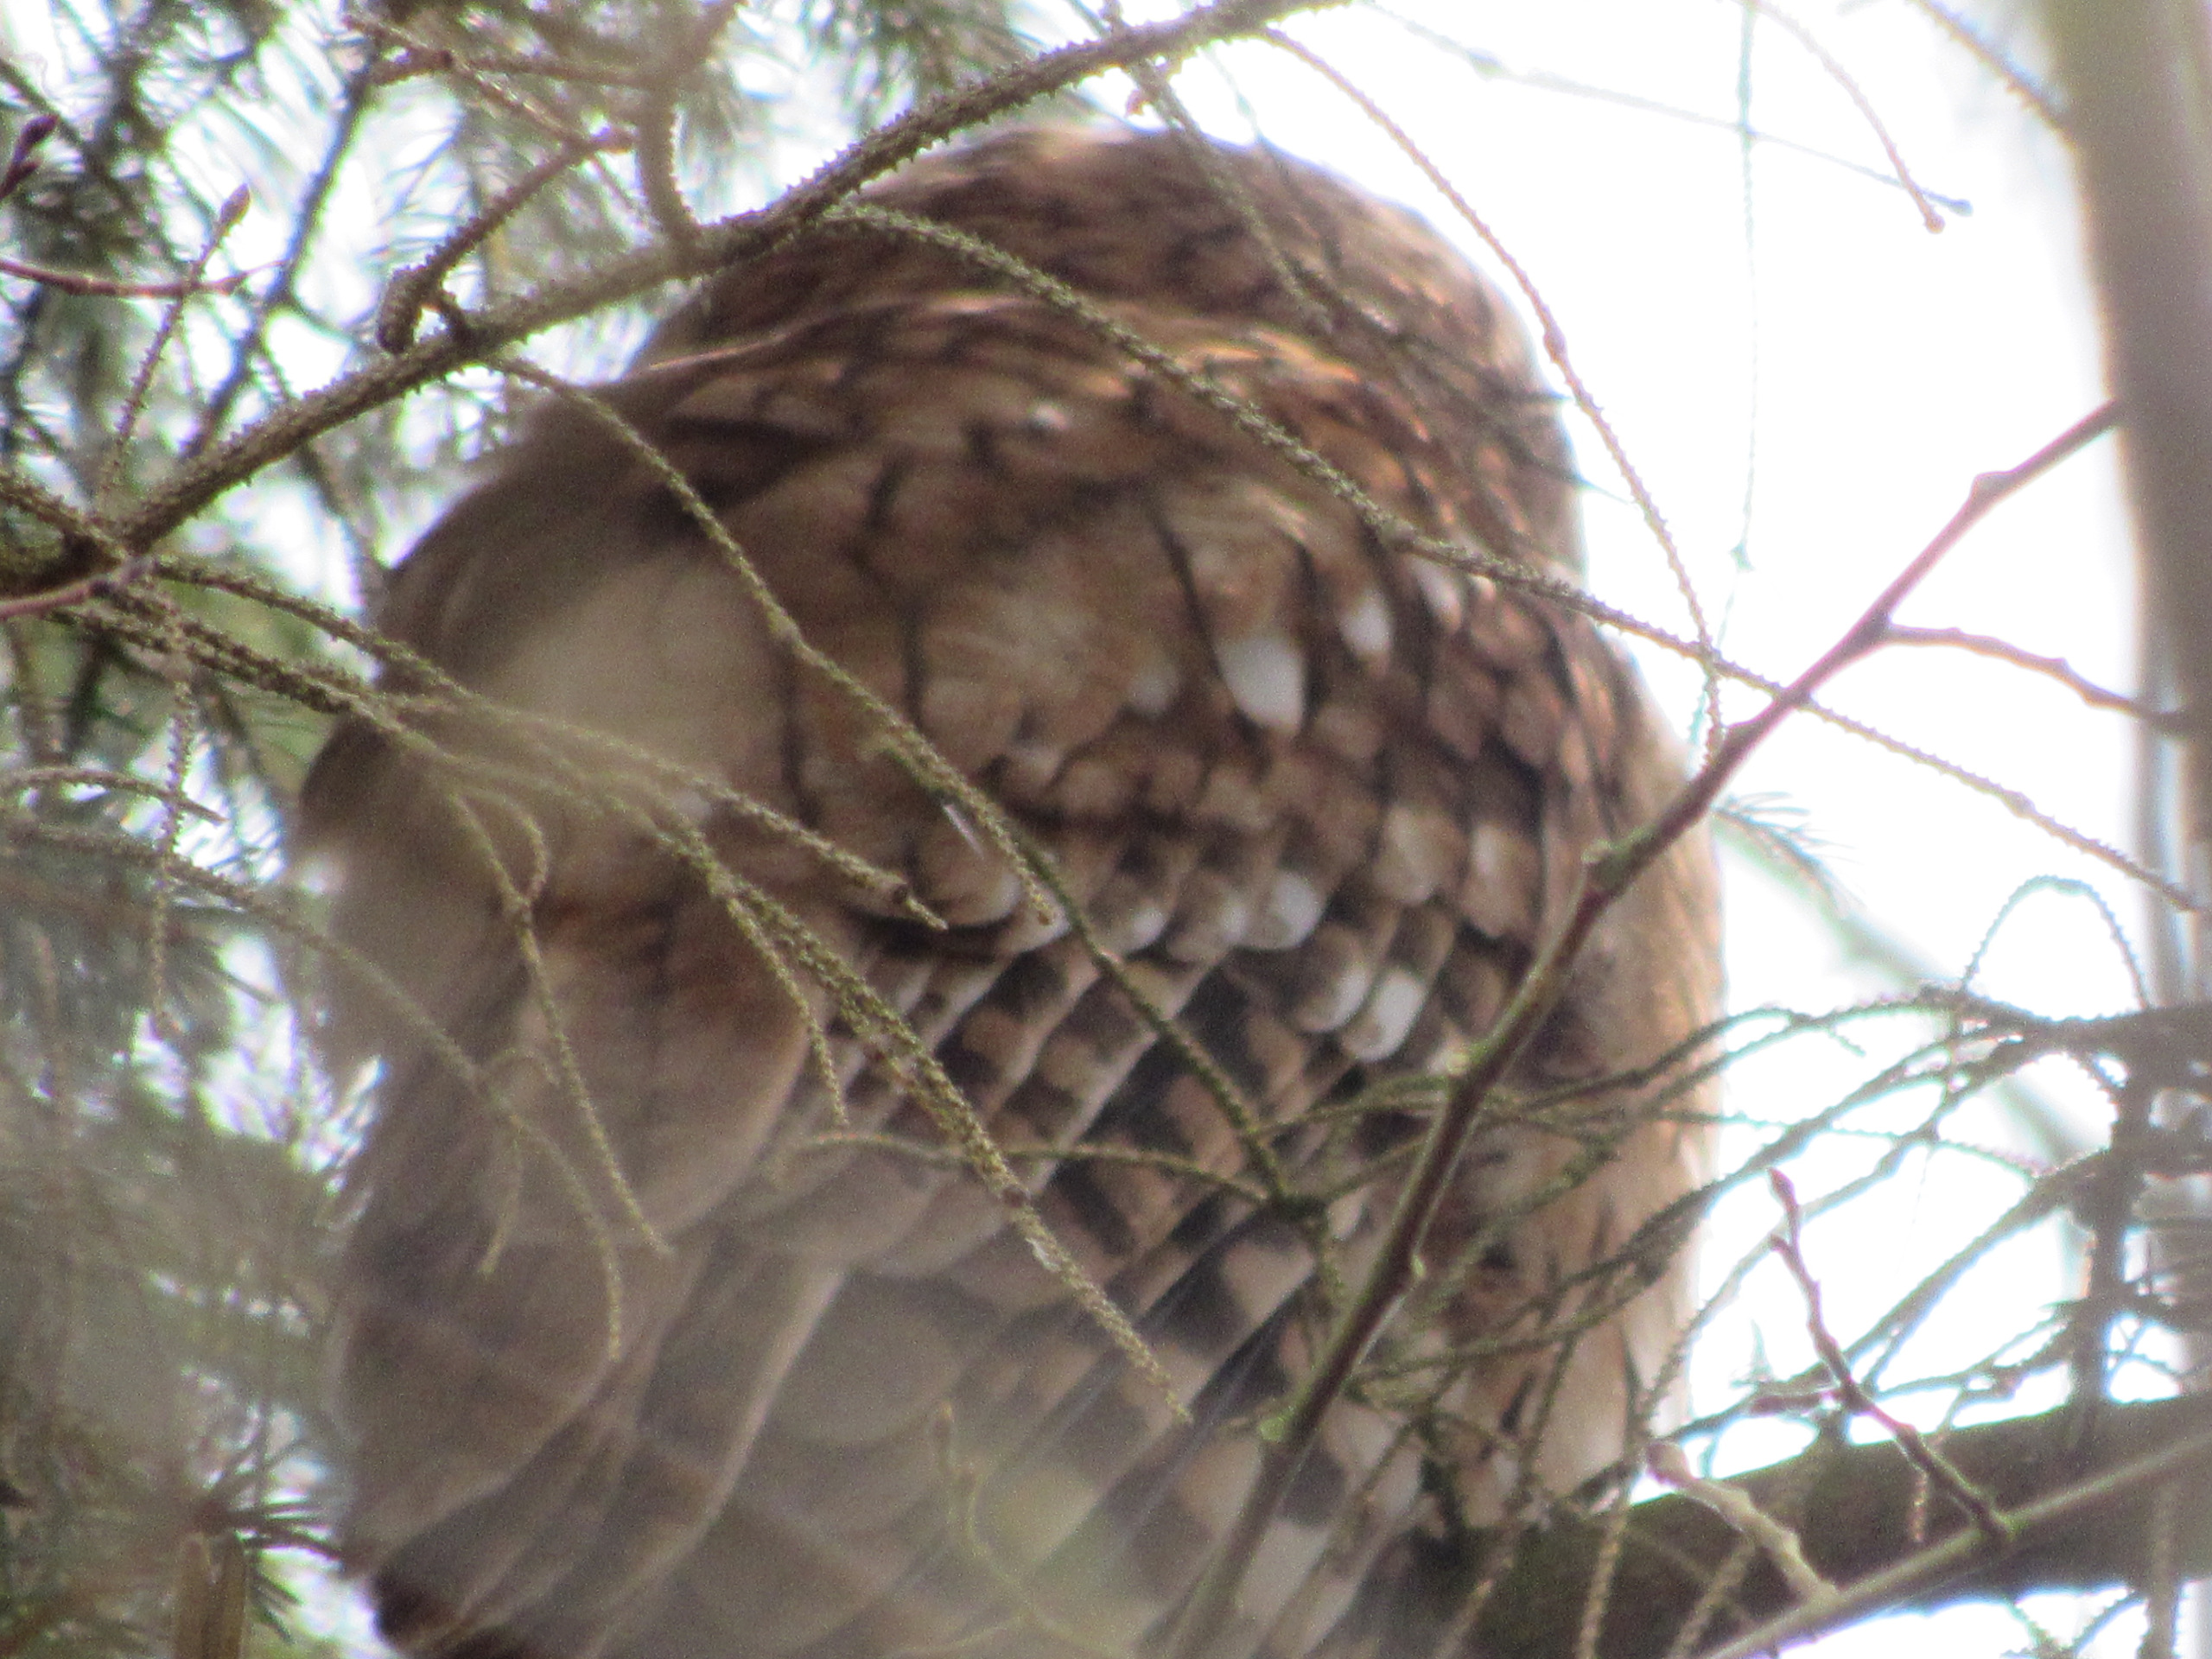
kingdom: Animalia
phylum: Chordata
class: Aves
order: Strigiformes
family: Strigidae
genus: Strix
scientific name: Strix aluco
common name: Natugle
